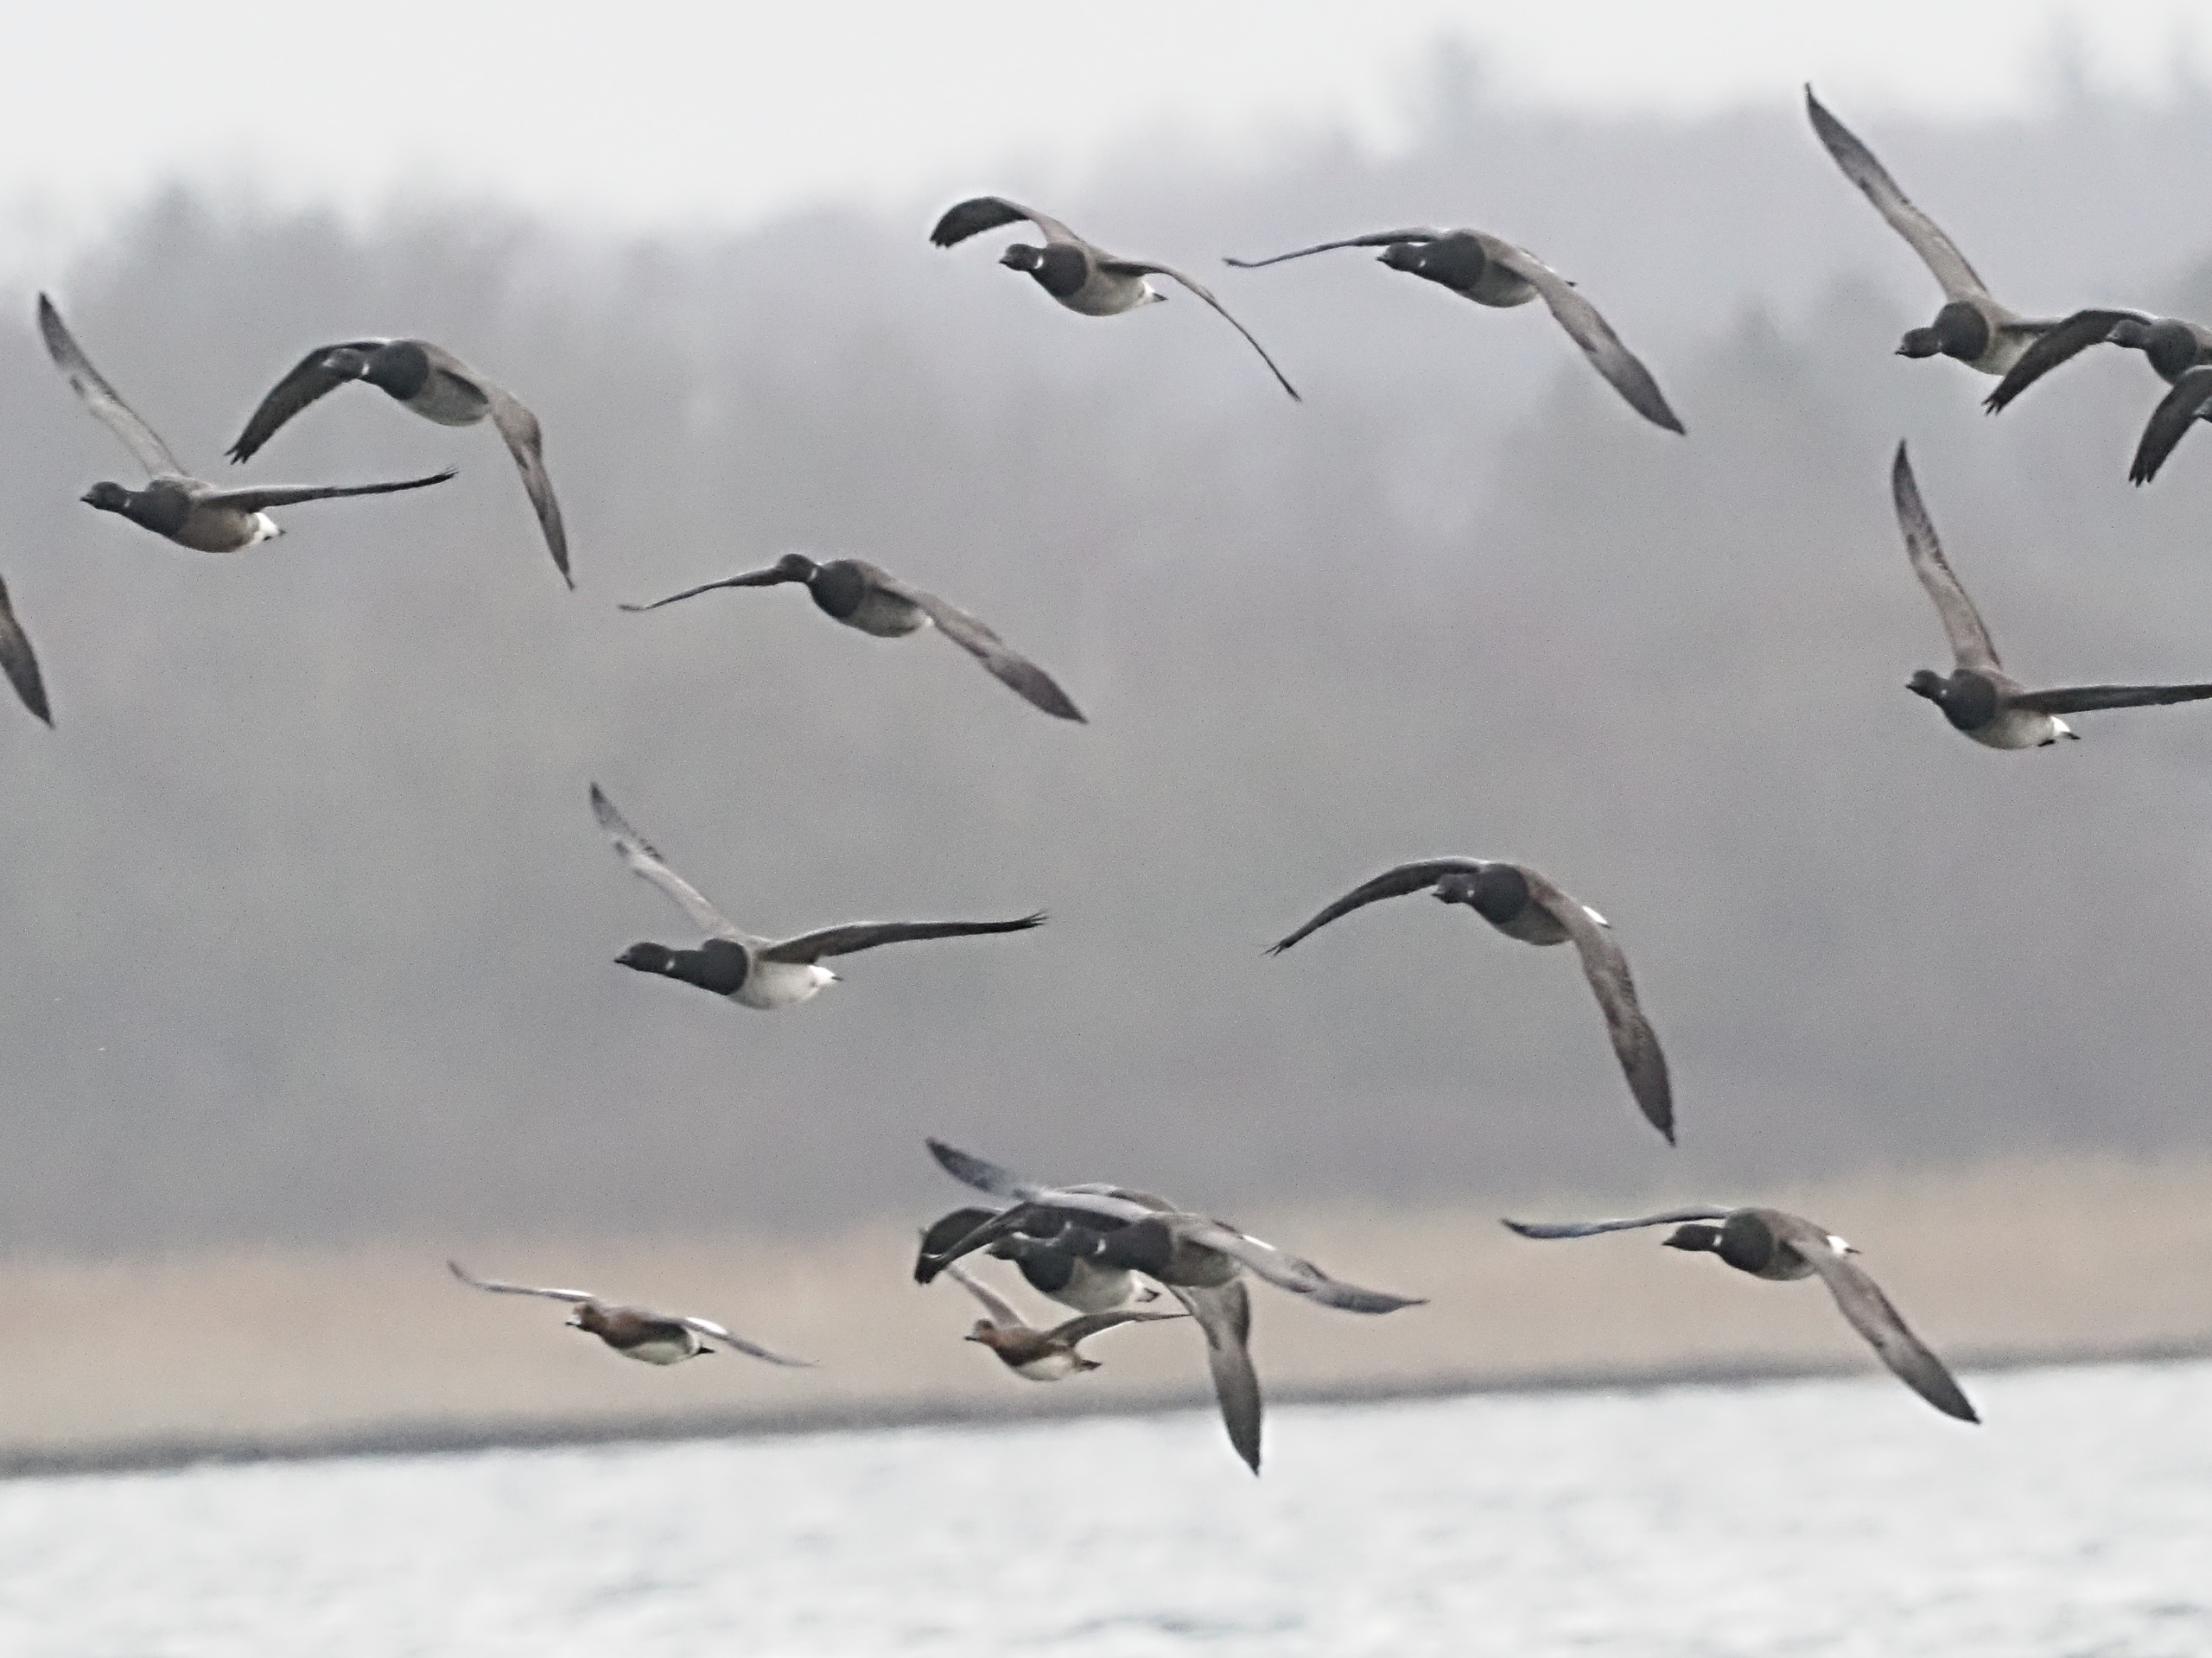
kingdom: Animalia
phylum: Chordata
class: Aves
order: Anseriformes
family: Anatidae
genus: Branta
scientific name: Branta bernicla
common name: Lysbuget knortegås
